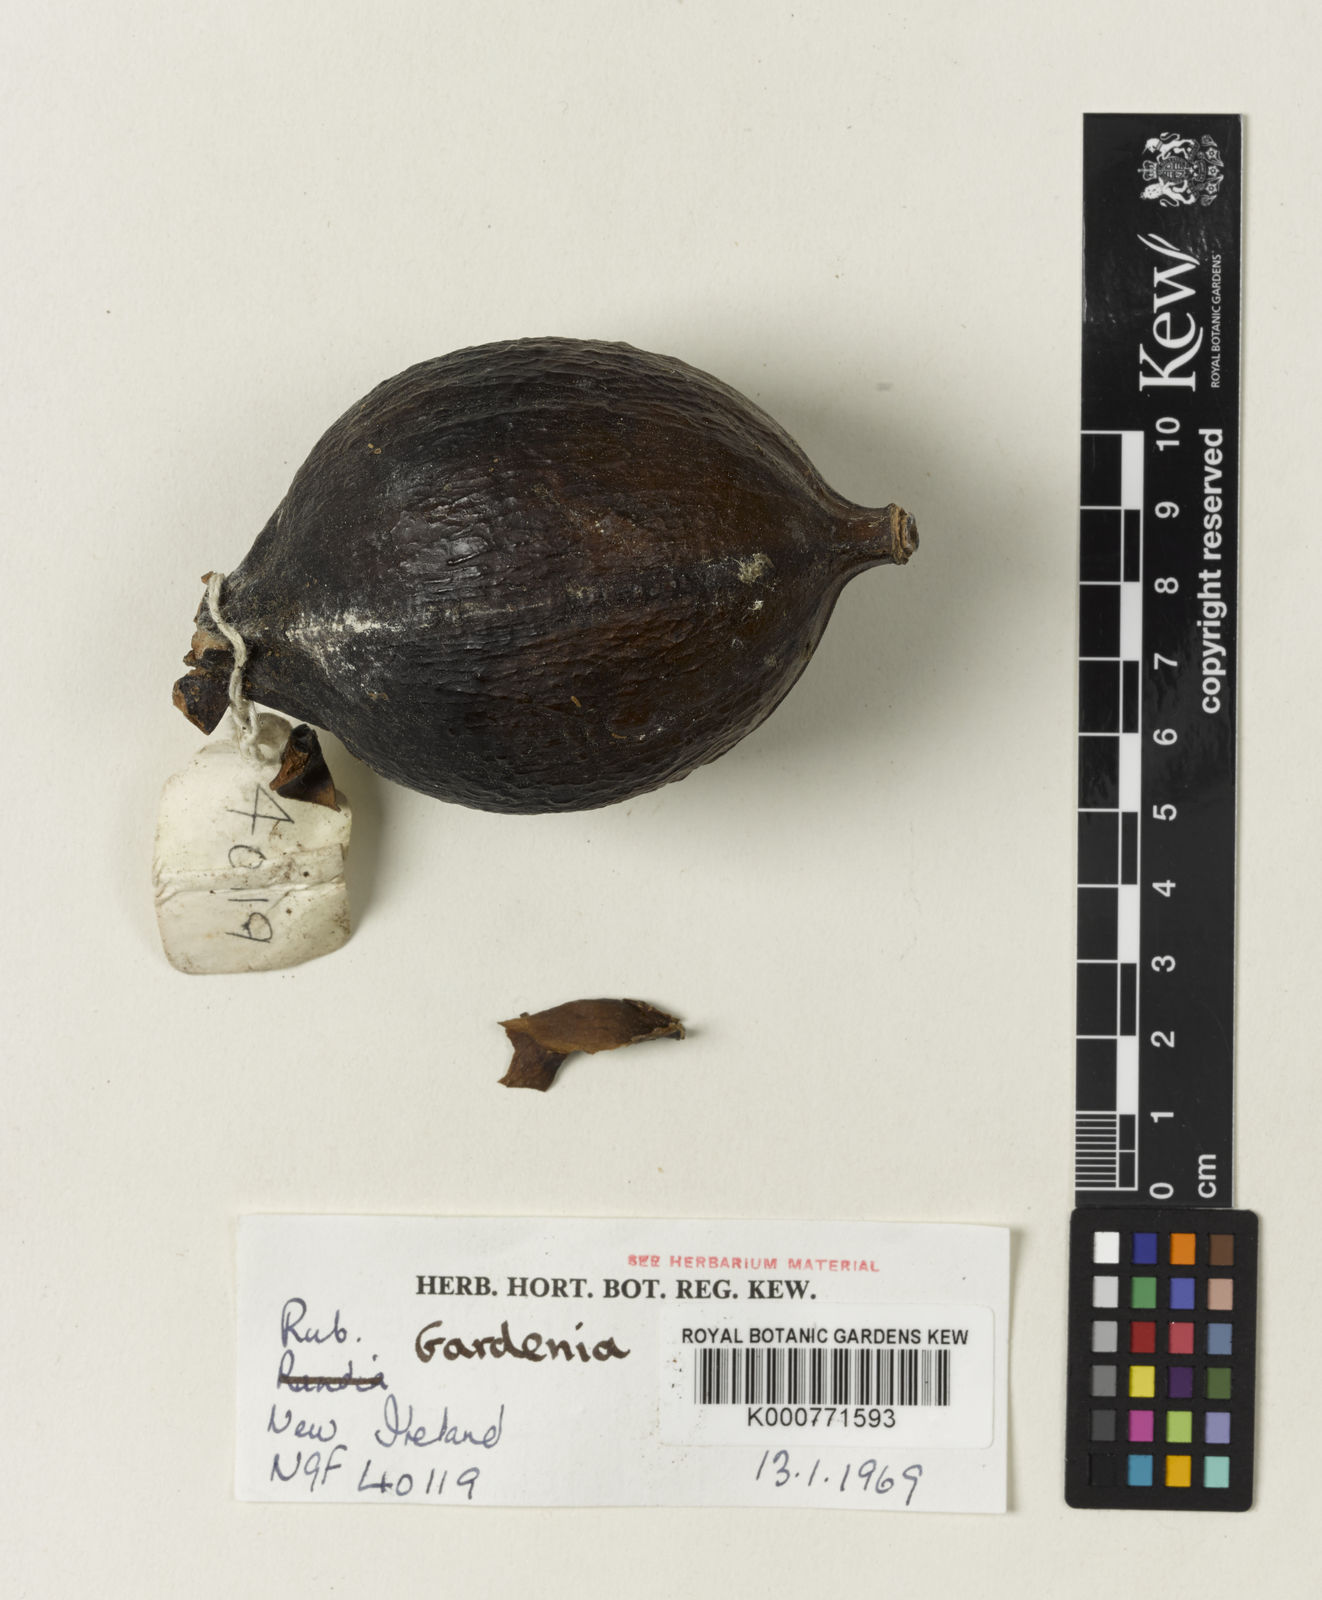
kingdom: Plantae
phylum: Tracheophyta
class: Magnoliopsida
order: Gentianales
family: Rubiaceae
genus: Gardenia
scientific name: Gardenia
